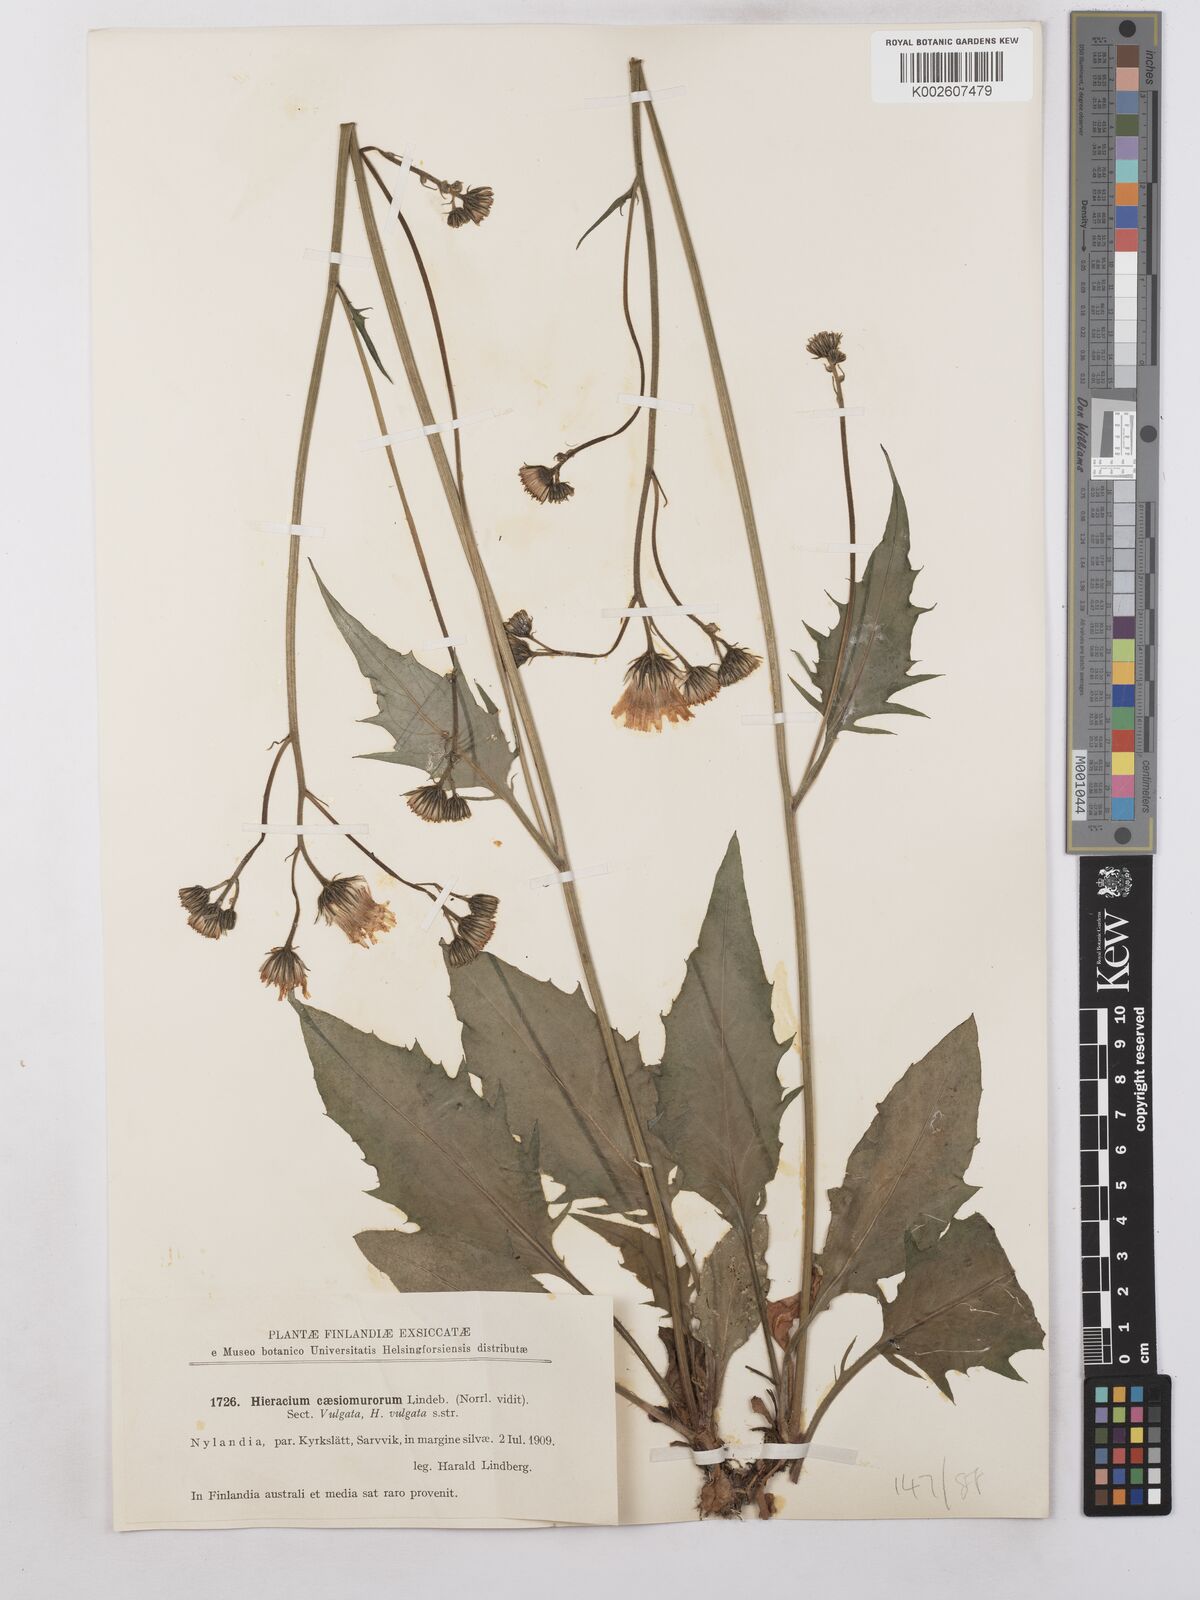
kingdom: Plantae
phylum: Tracheophyta
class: Magnoliopsida
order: Asterales
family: Asteraceae
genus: Hieracium
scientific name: Hieracium caesium
